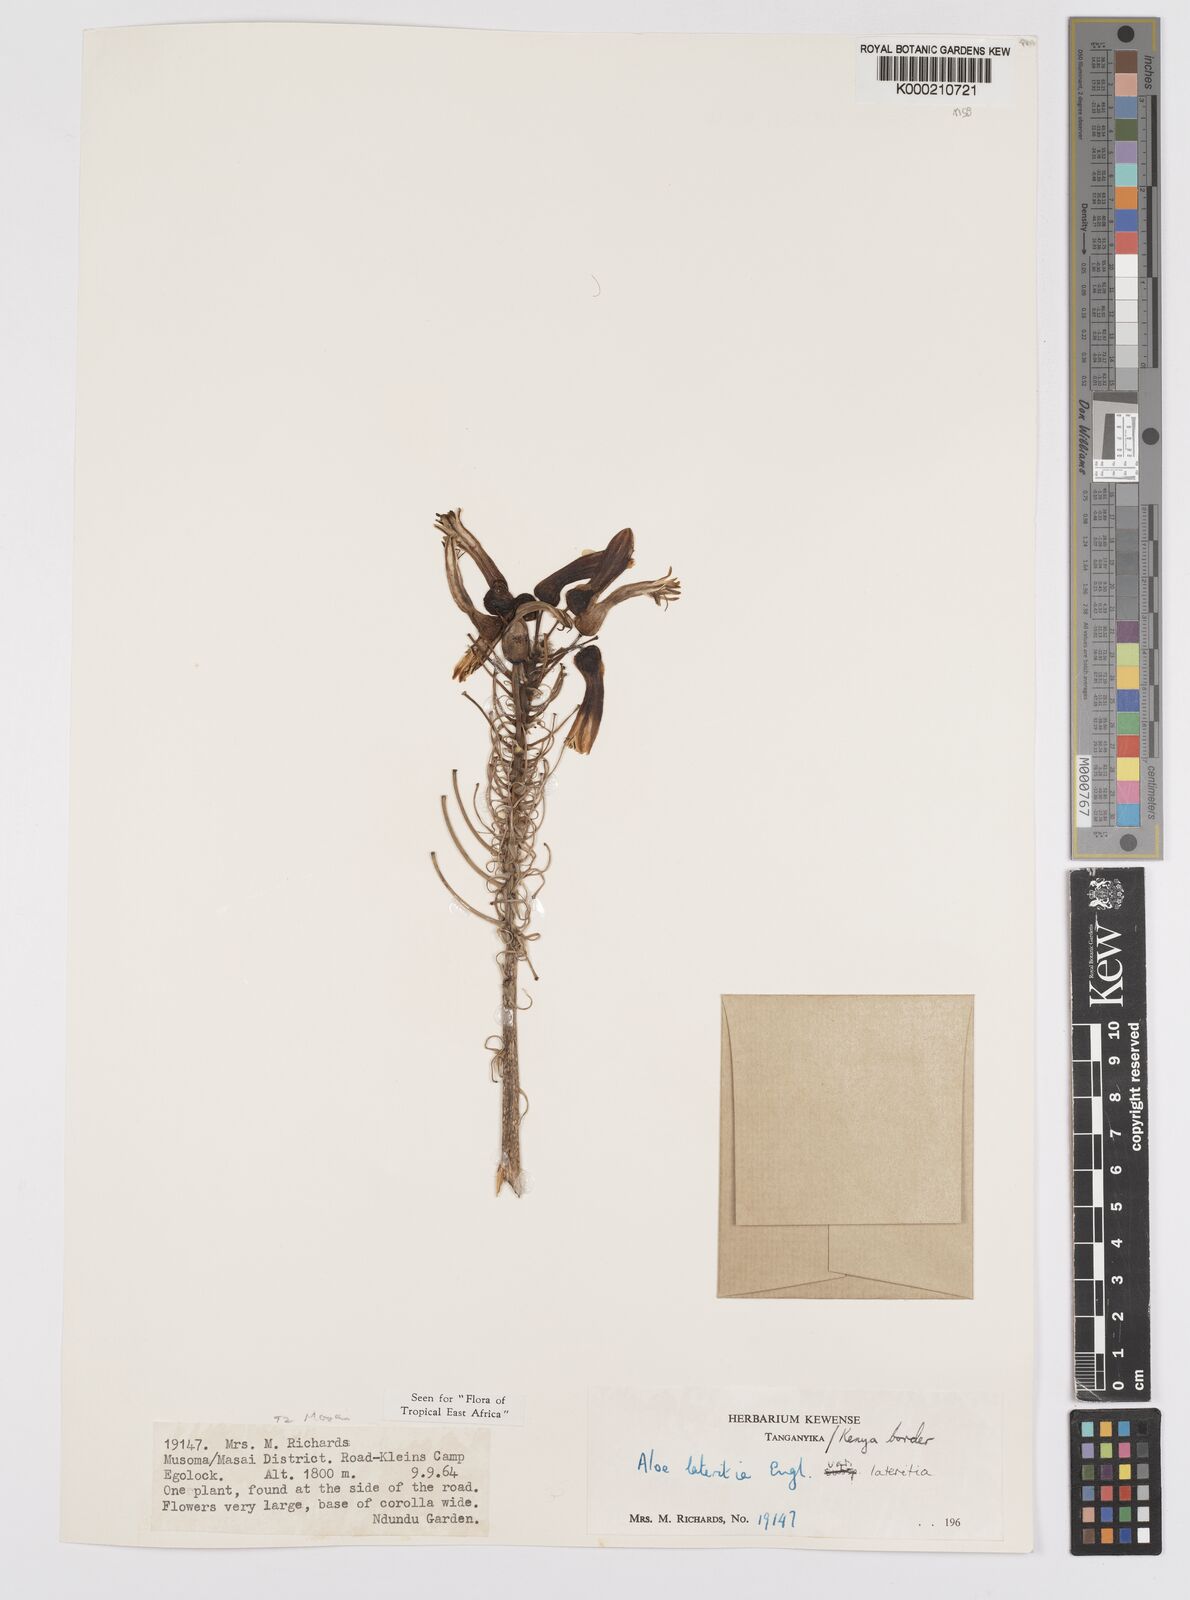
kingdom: Plantae
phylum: Tracheophyta
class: Liliopsida
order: Asparagales
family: Asphodelaceae
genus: Aloe
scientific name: Aloe lateritia
